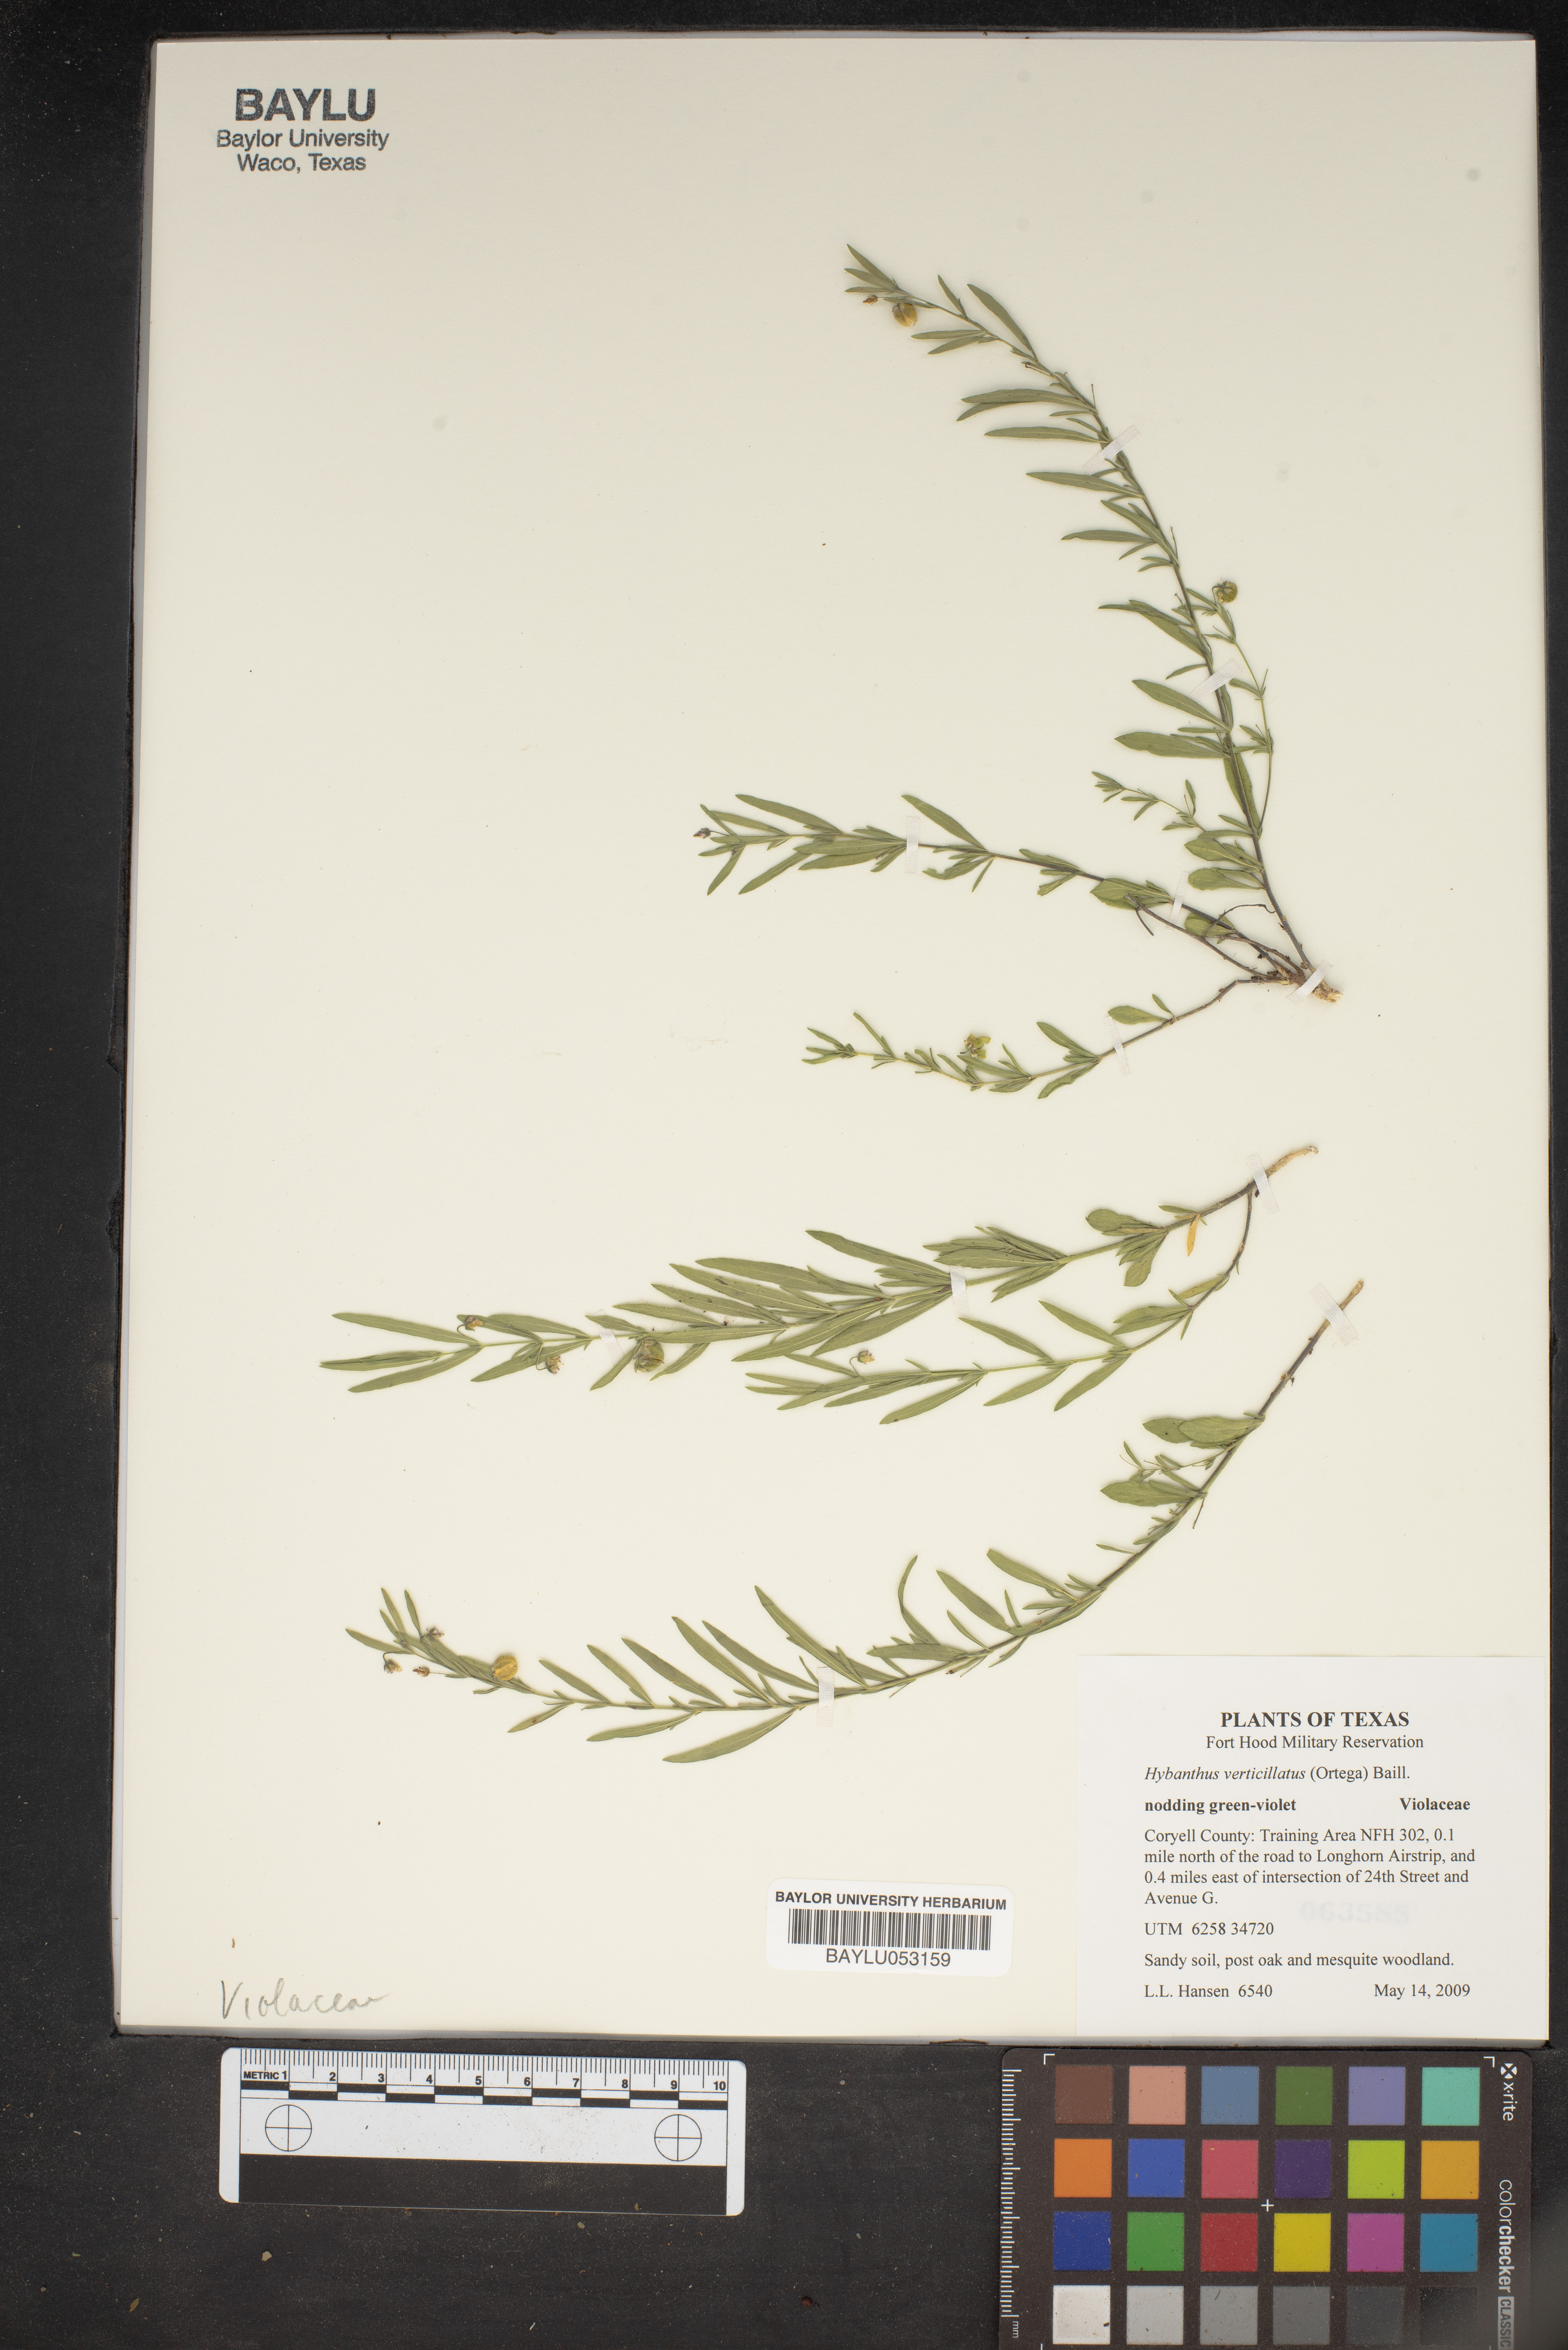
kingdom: Plantae
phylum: Tracheophyta
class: Magnoliopsida
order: Malpighiales
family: Violaceae
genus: Pombalia
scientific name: Pombalia verticillata
